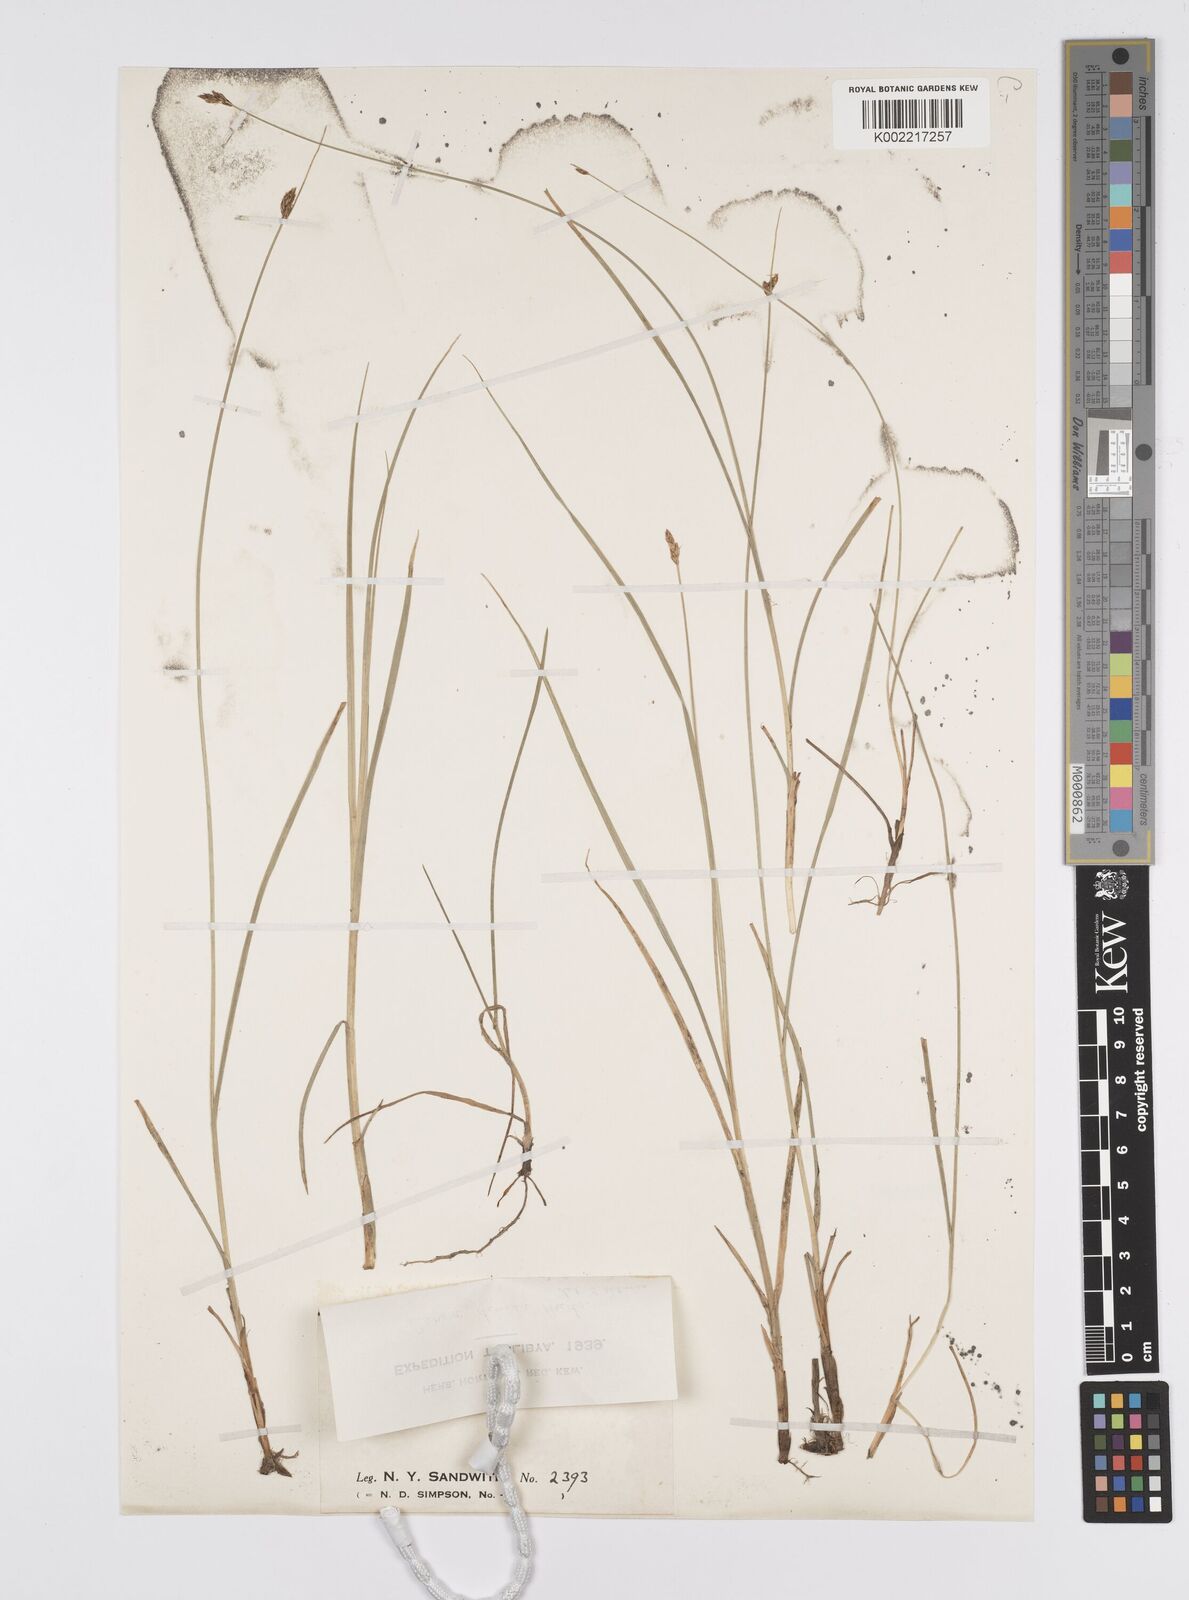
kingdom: Plantae
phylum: Tracheophyta
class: Liliopsida
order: Poales
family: Cyperaceae
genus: Carex
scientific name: Carex divisa
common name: Divided sedge
